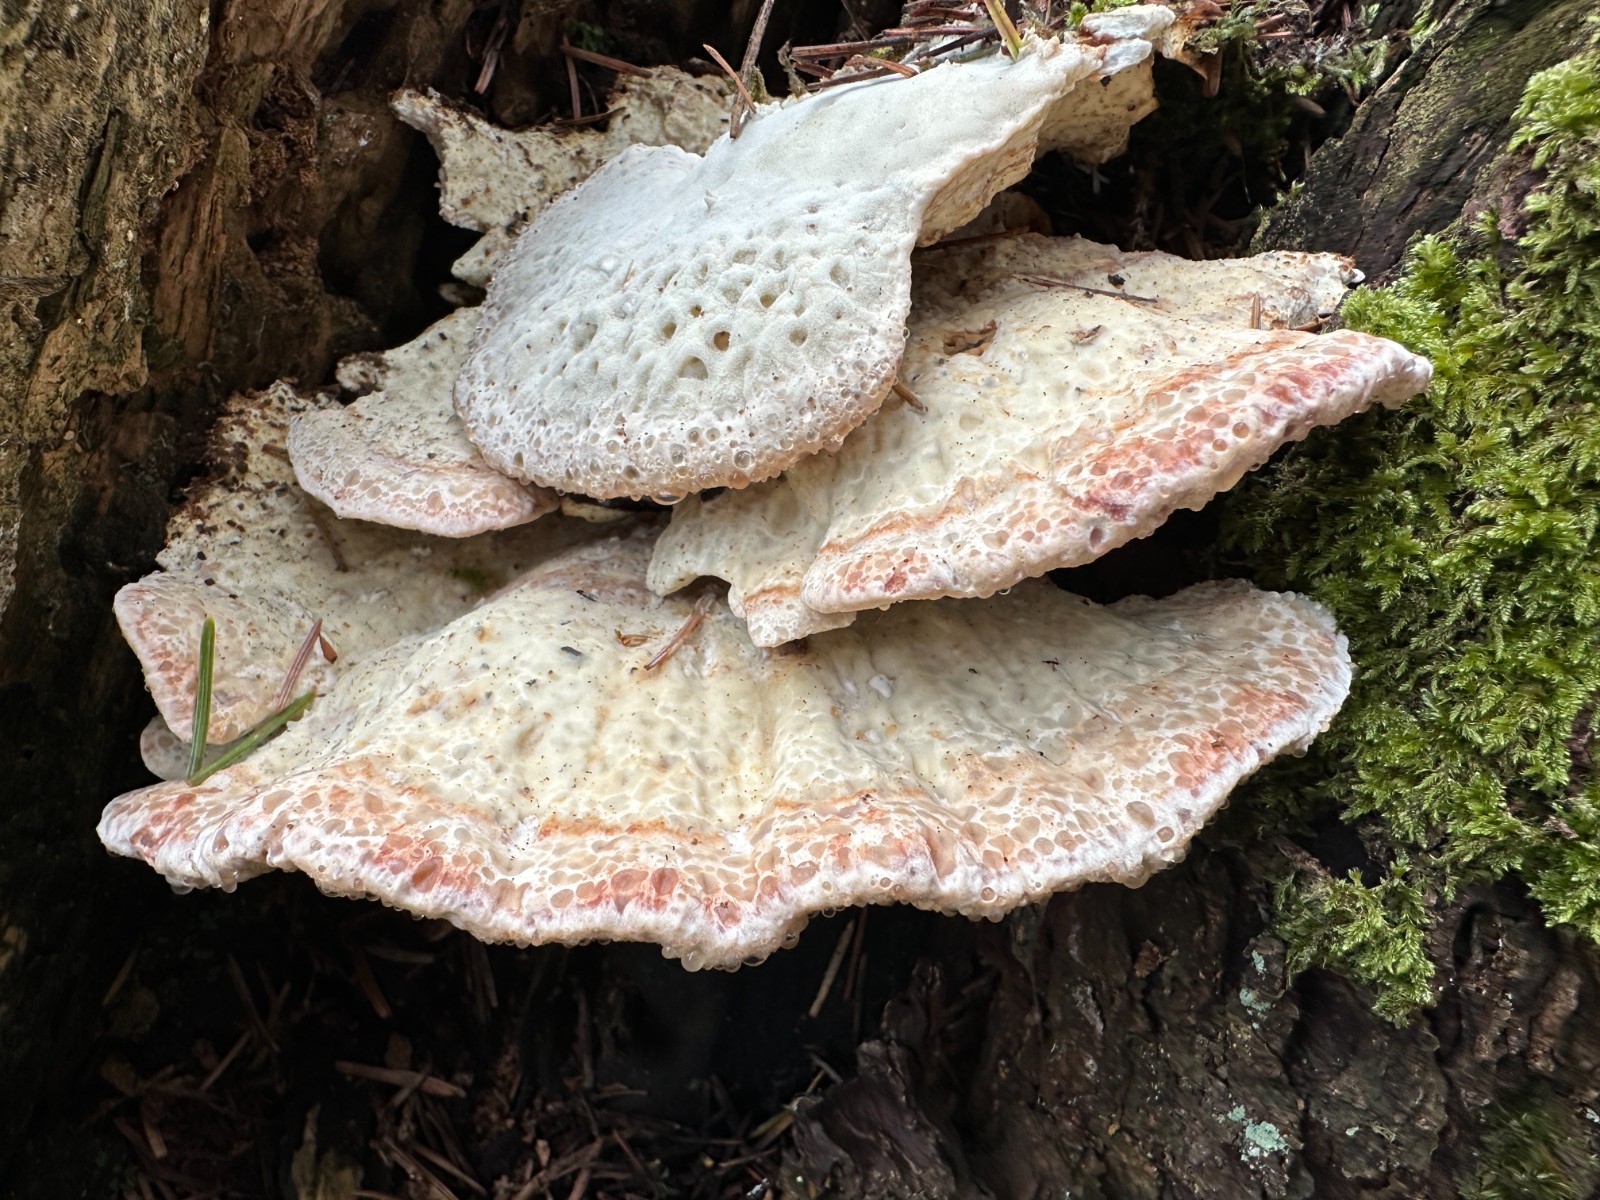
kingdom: Fungi
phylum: Basidiomycota
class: Agaricomycetes
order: Polyporales
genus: Calcipostia
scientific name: Calcipostia guttulata
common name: dråbe-kødporesvamp
